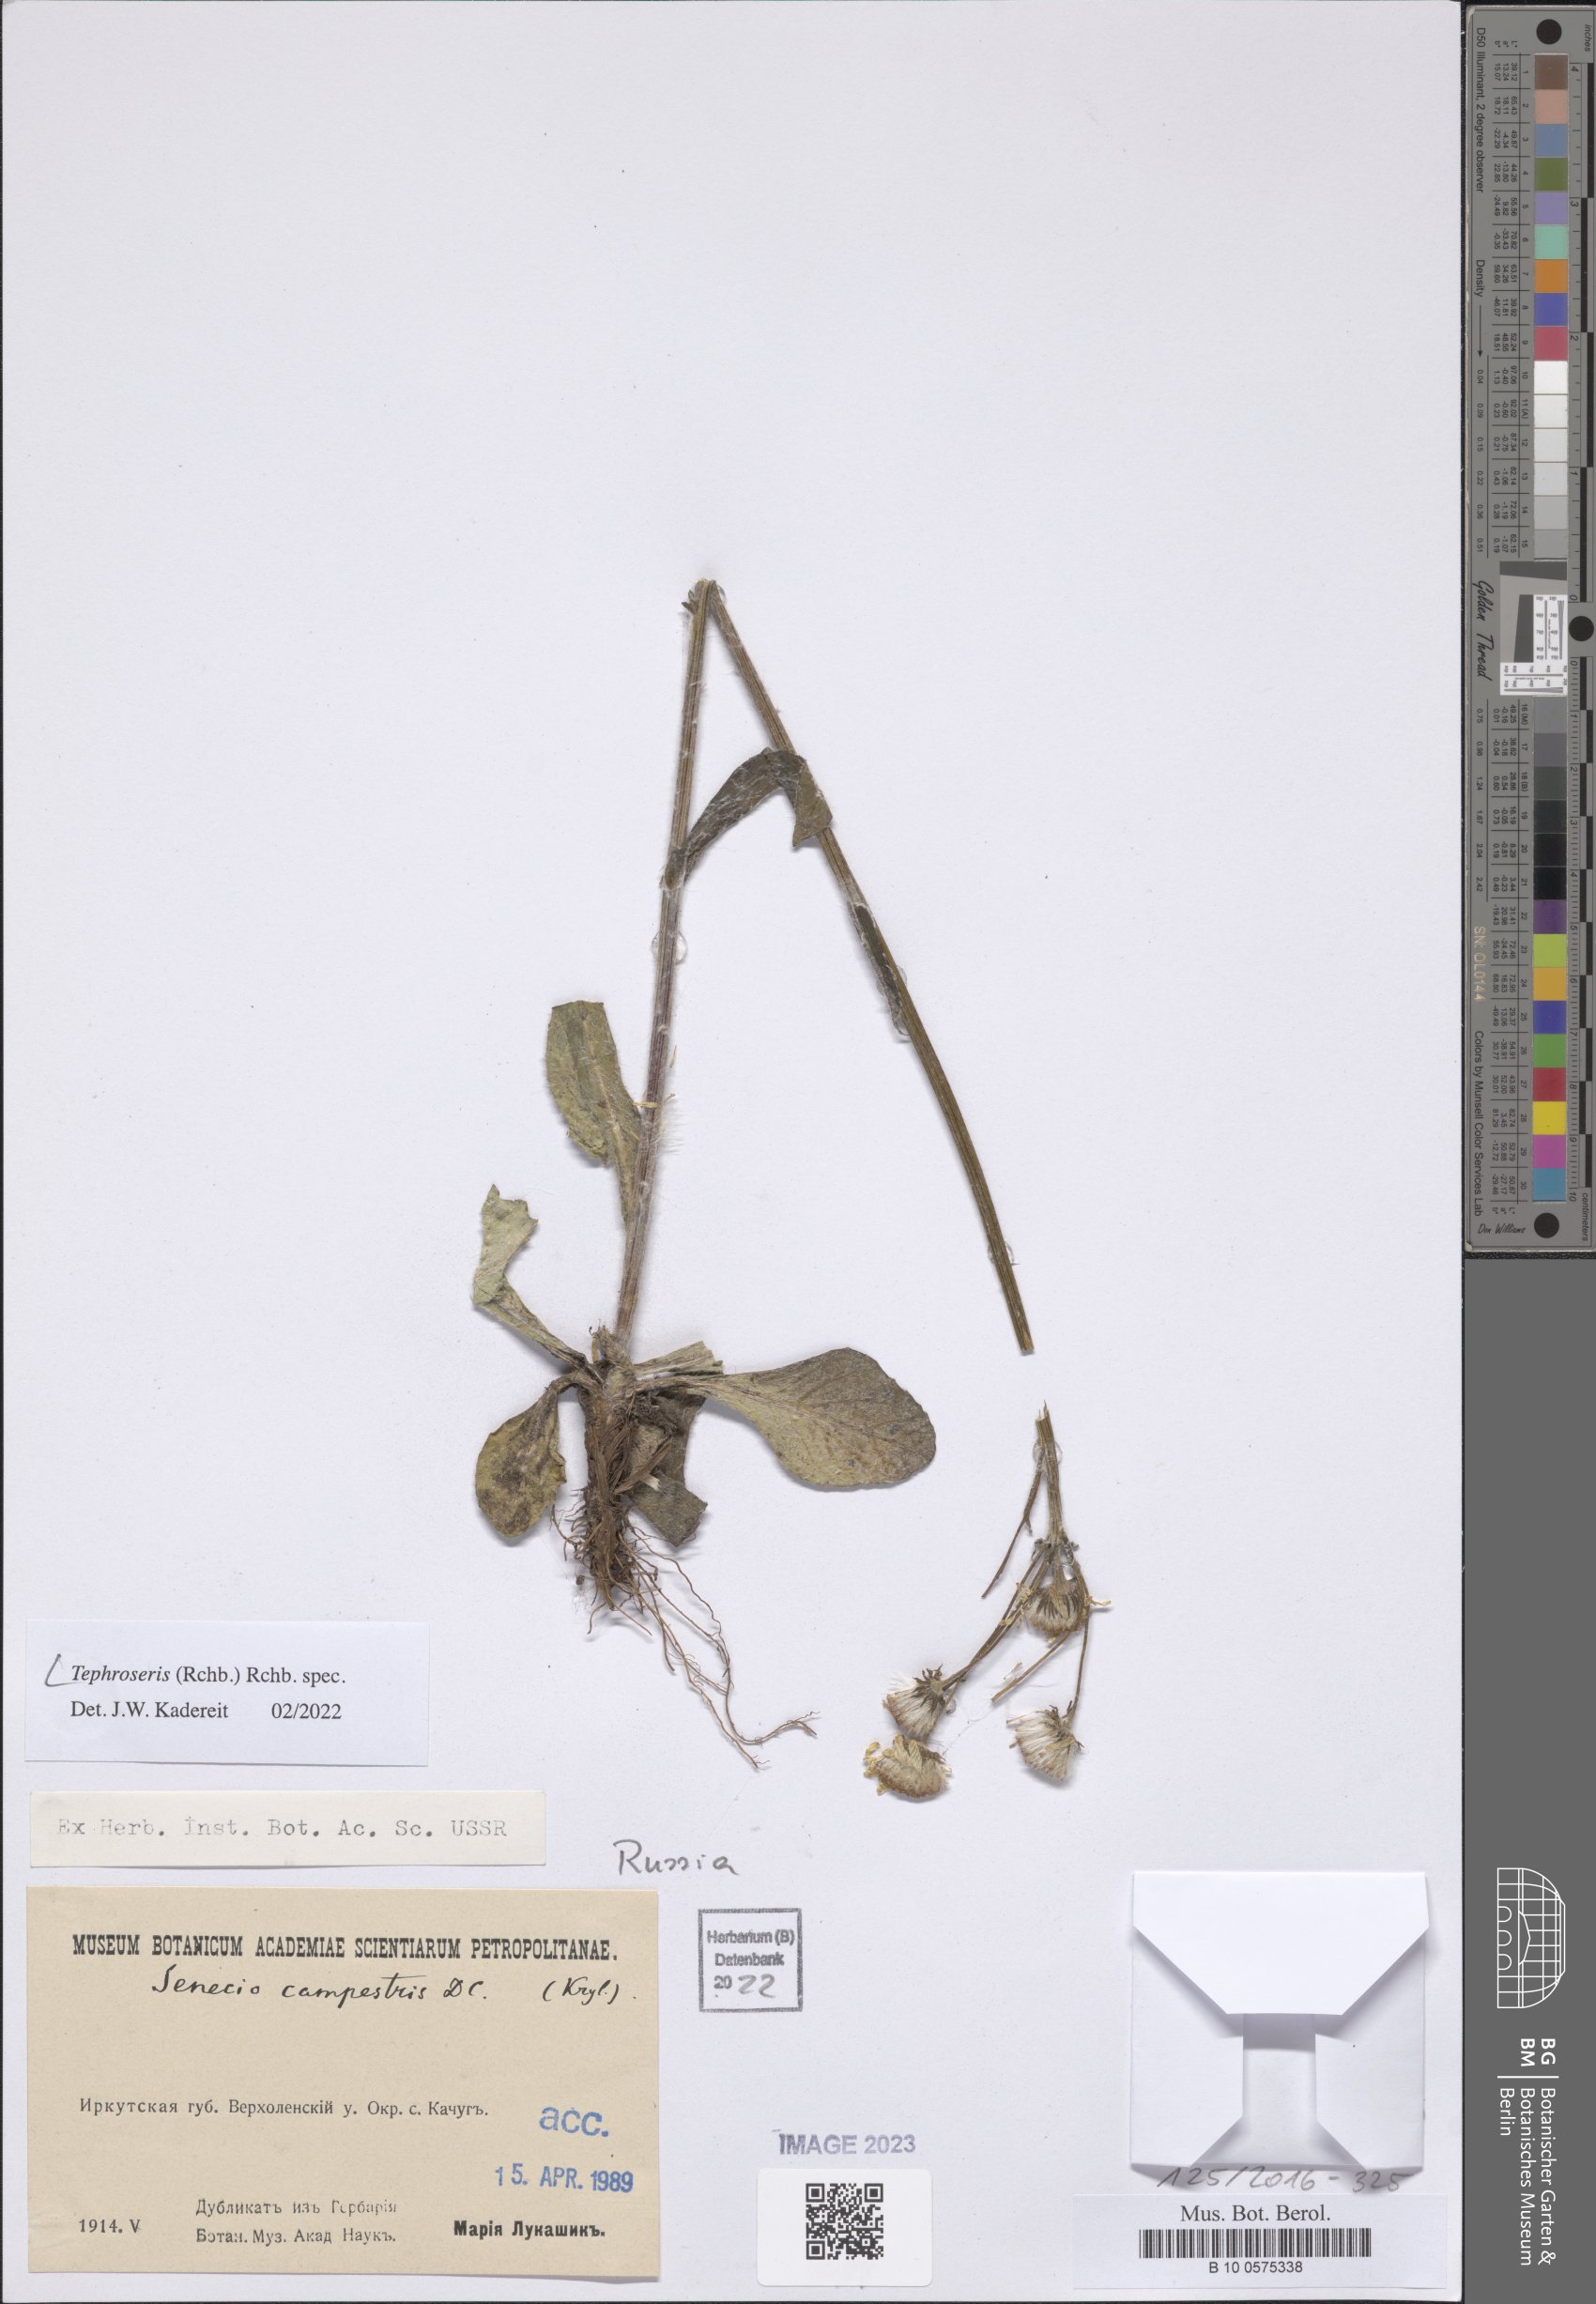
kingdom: Plantae
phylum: Tracheophyta
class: Magnoliopsida
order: Asterales
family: Asteraceae
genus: Tephroseris
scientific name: Tephroseris
